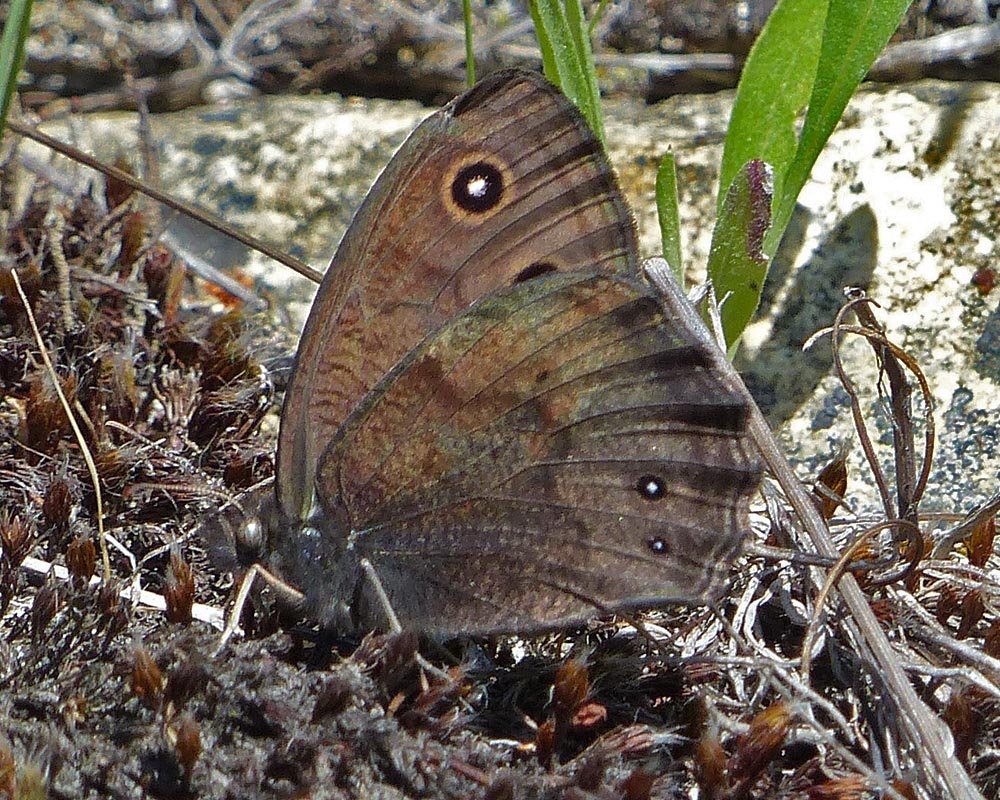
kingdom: Animalia
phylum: Arthropoda
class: Insecta
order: Lepidoptera
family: Nymphalidae
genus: Cercyonis
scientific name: Cercyonis pegala
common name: Common Wood-Nymph
